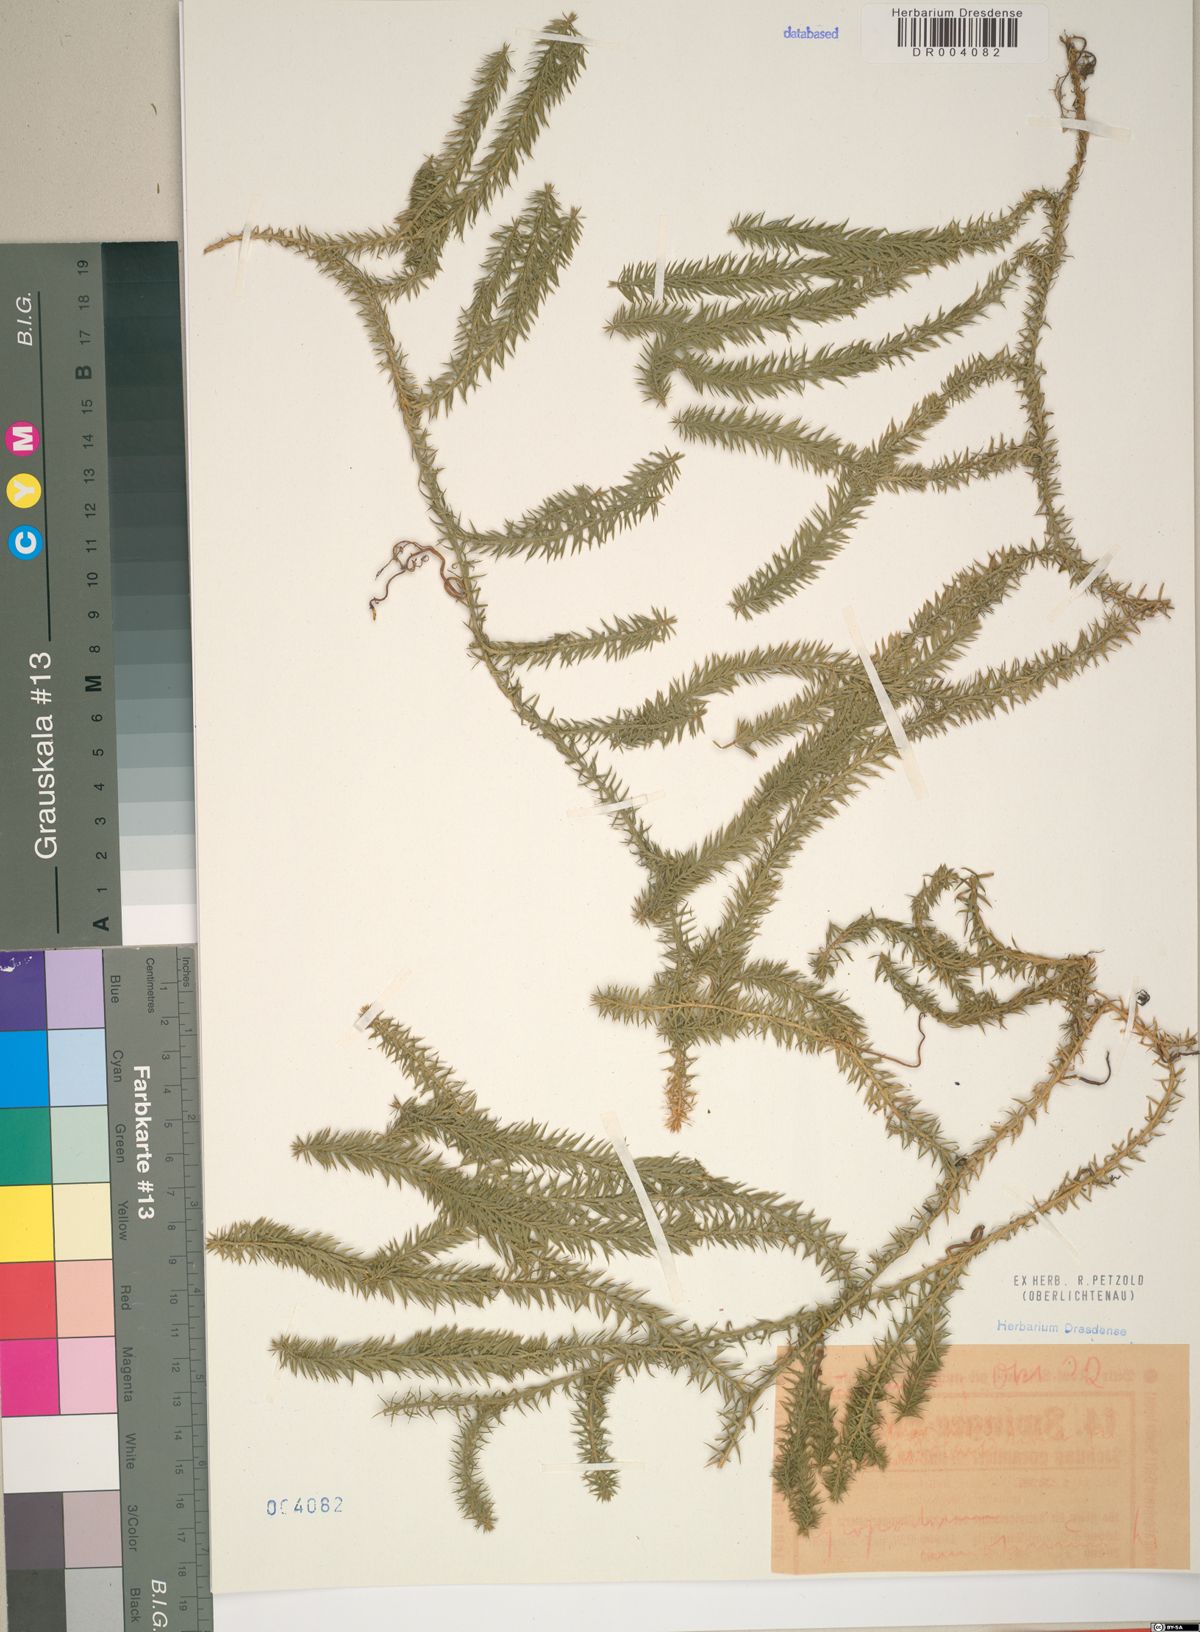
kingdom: Plantae
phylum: Tracheophyta
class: Lycopodiopsida
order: Lycopodiales
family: Lycopodiaceae
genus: Spinulum
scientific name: Spinulum annotinum
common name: Interrupted club-moss
